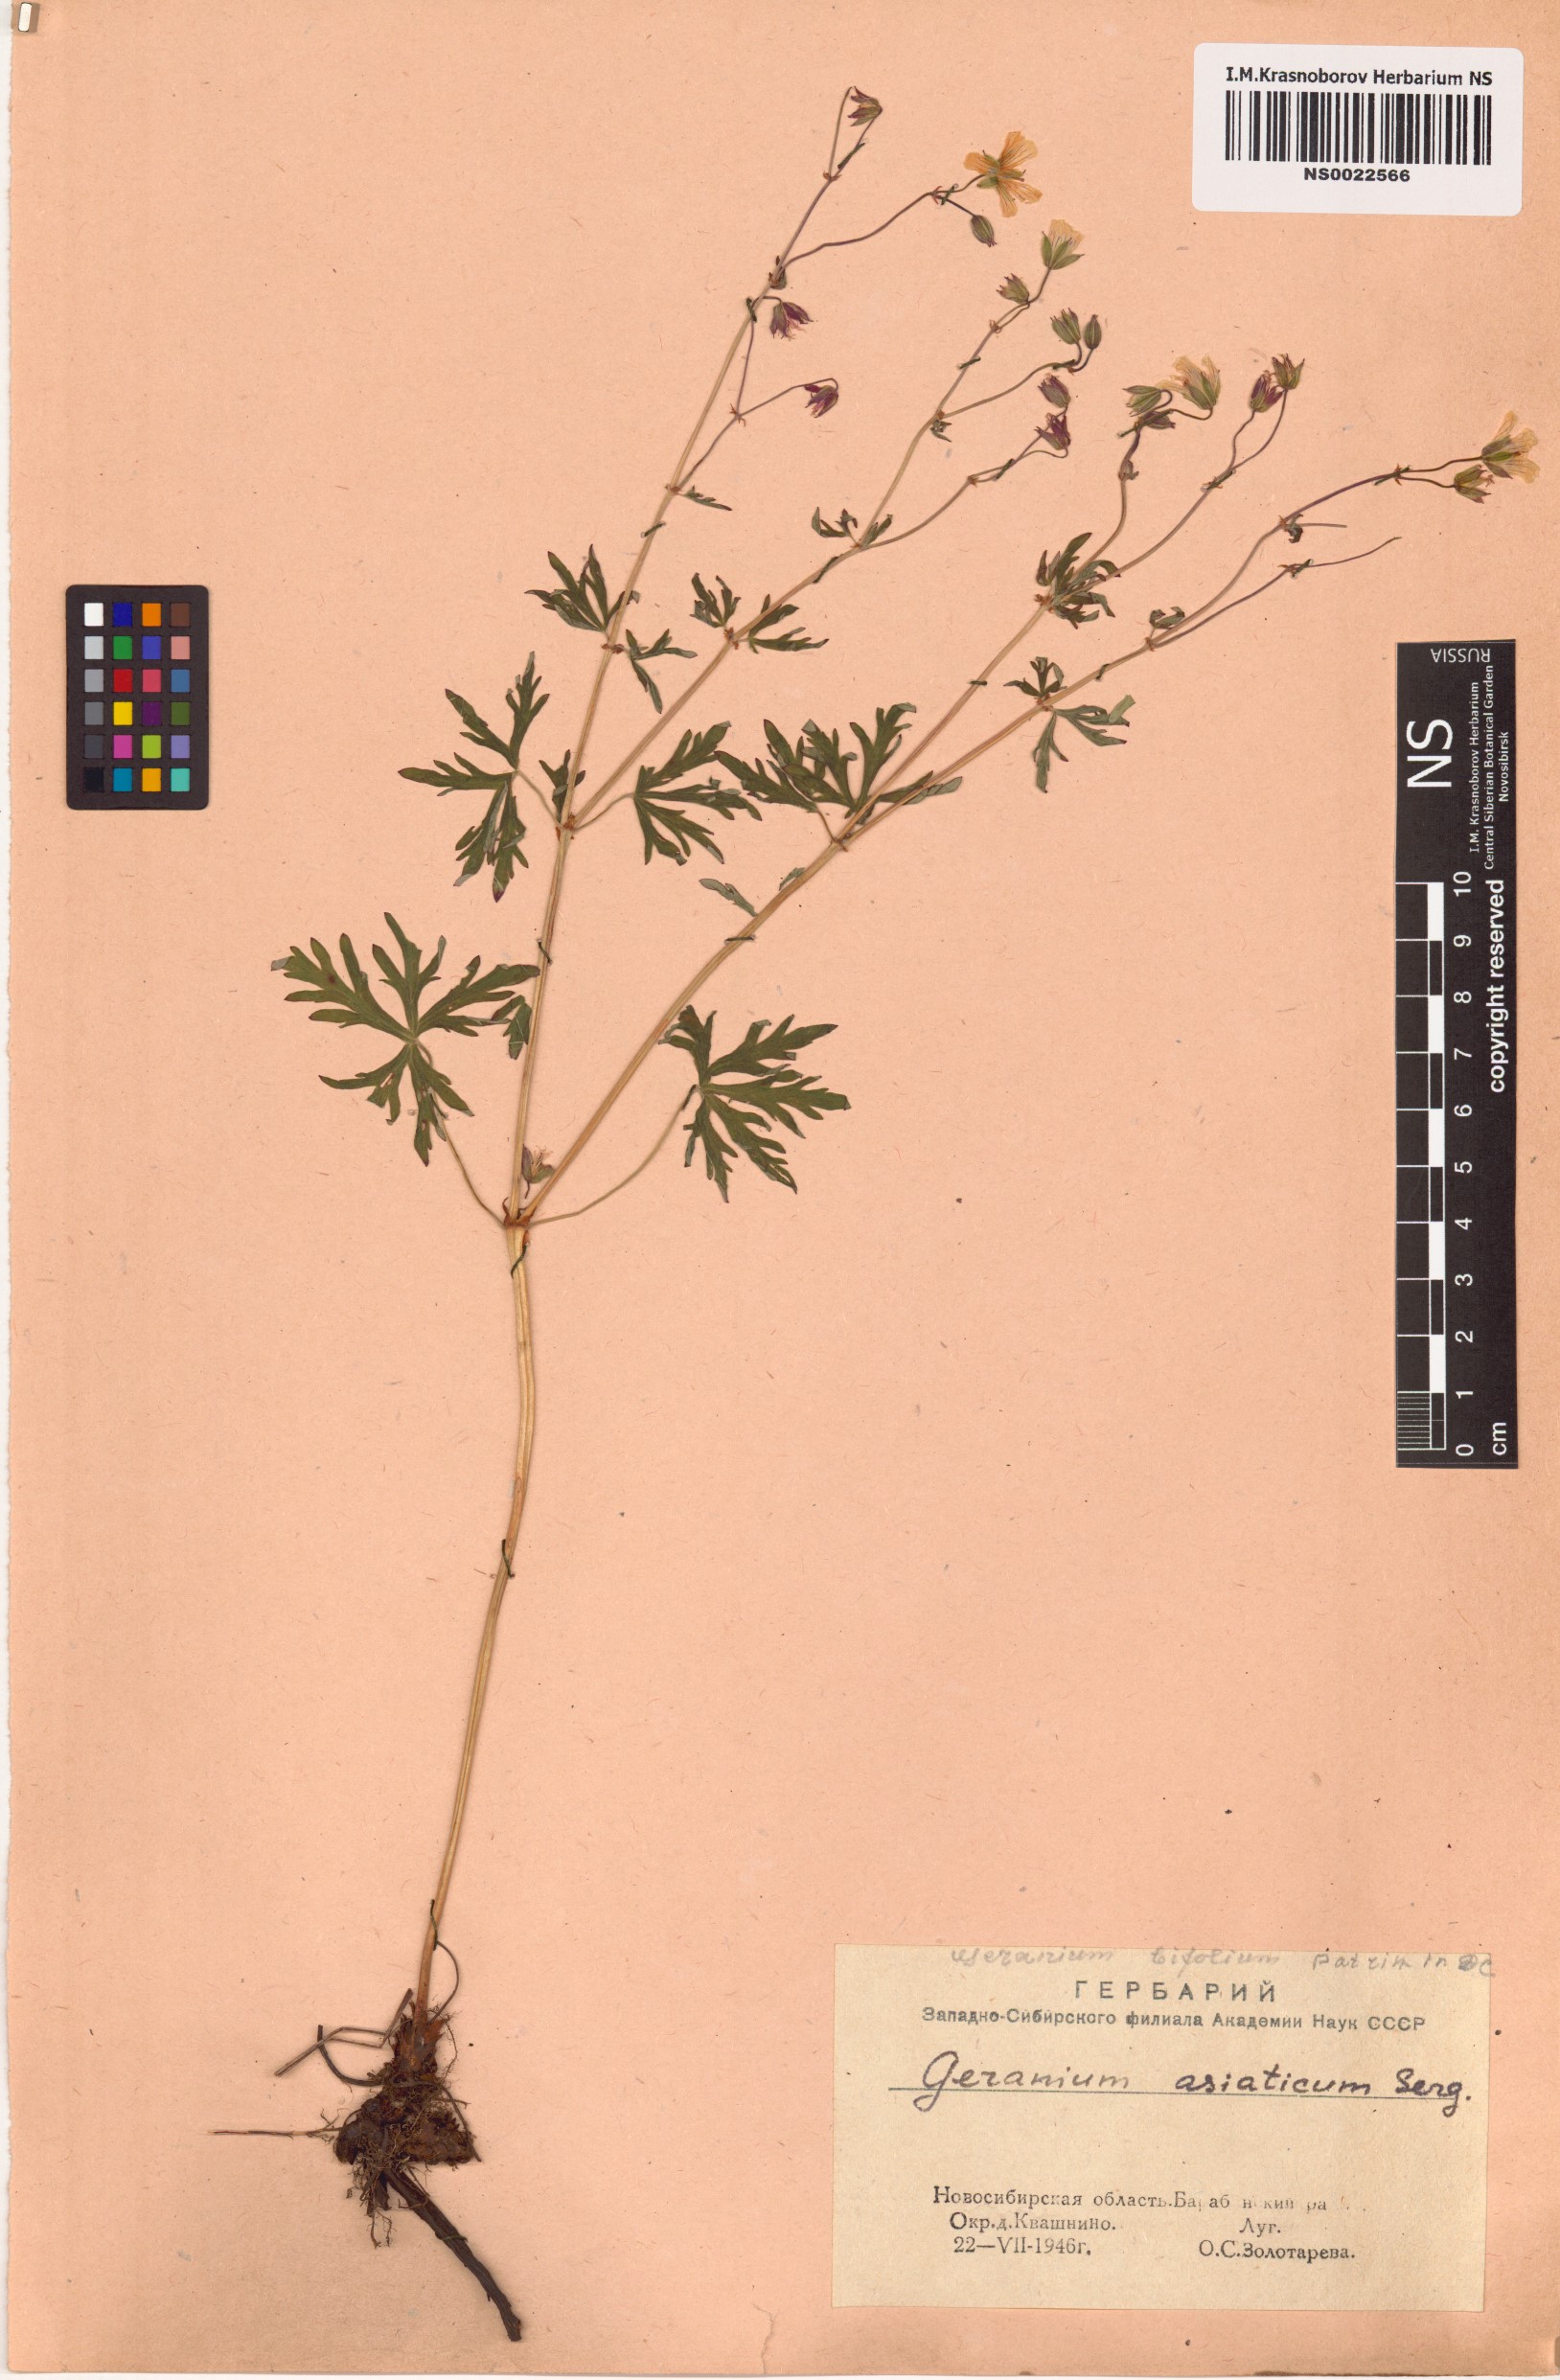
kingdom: Plantae
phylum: Tracheophyta
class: Magnoliopsida
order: Geraniales
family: Geraniaceae
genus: Geranium
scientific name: Geranium pseudosibiricum
